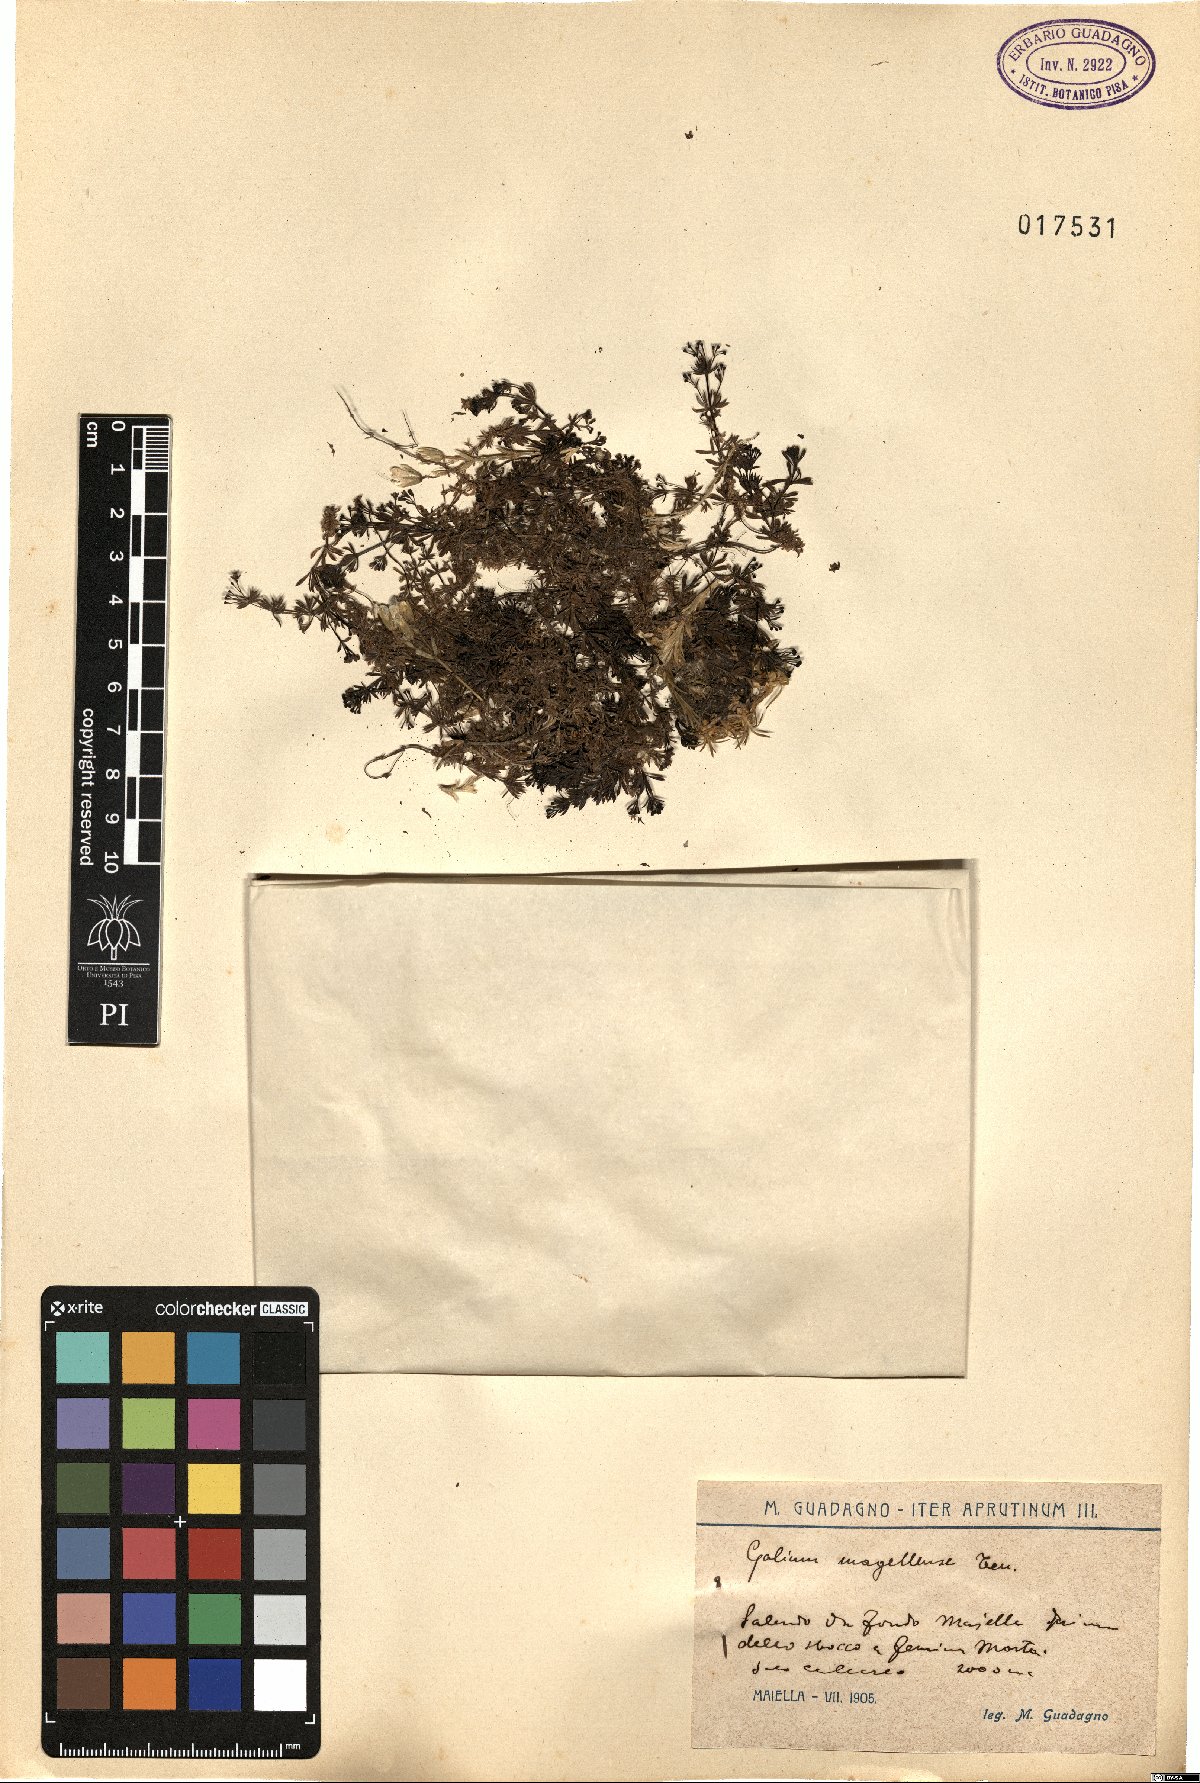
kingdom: Plantae
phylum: Tracheophyta
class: Magnoliopsida
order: Gentianales
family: Rubiaceae
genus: Galium
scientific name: Galium magellense
